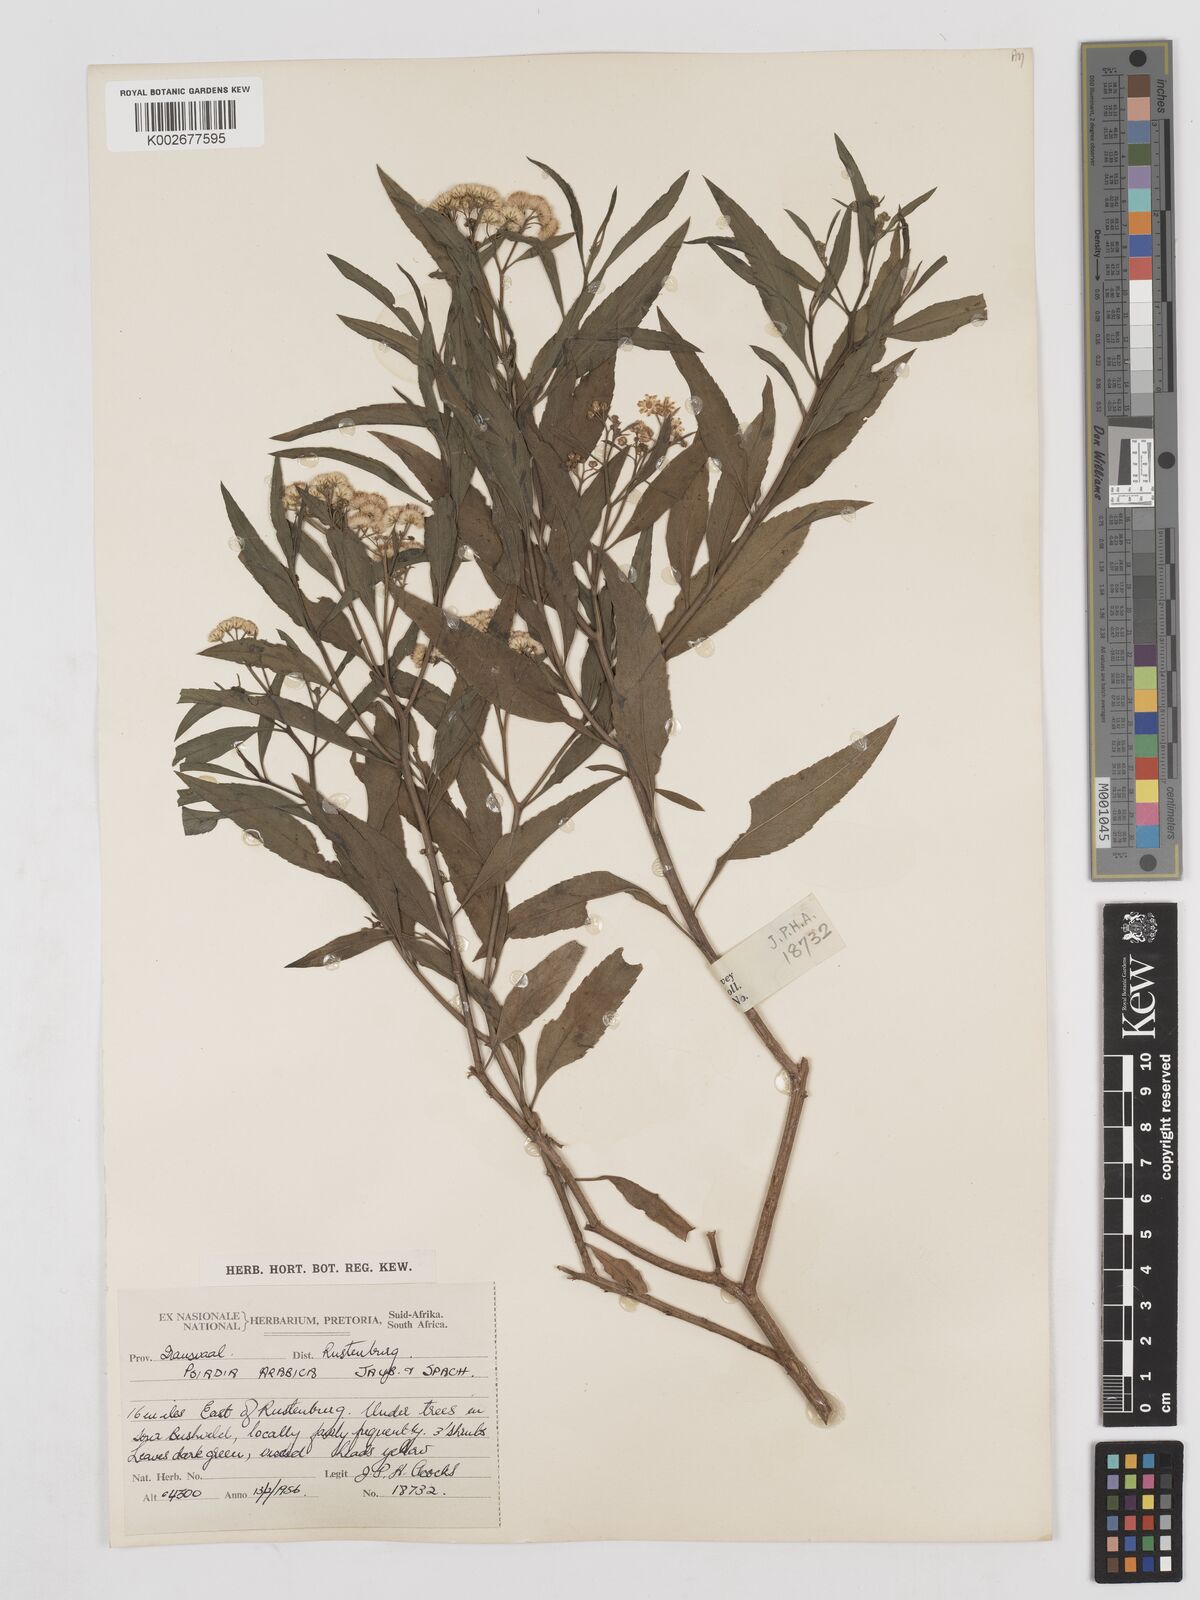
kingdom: Plantae
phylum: Tracheophyta
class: Magnoliopsida
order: Asterales
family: Asteraceae
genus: Psiadia
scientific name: Psiadia punctulata
